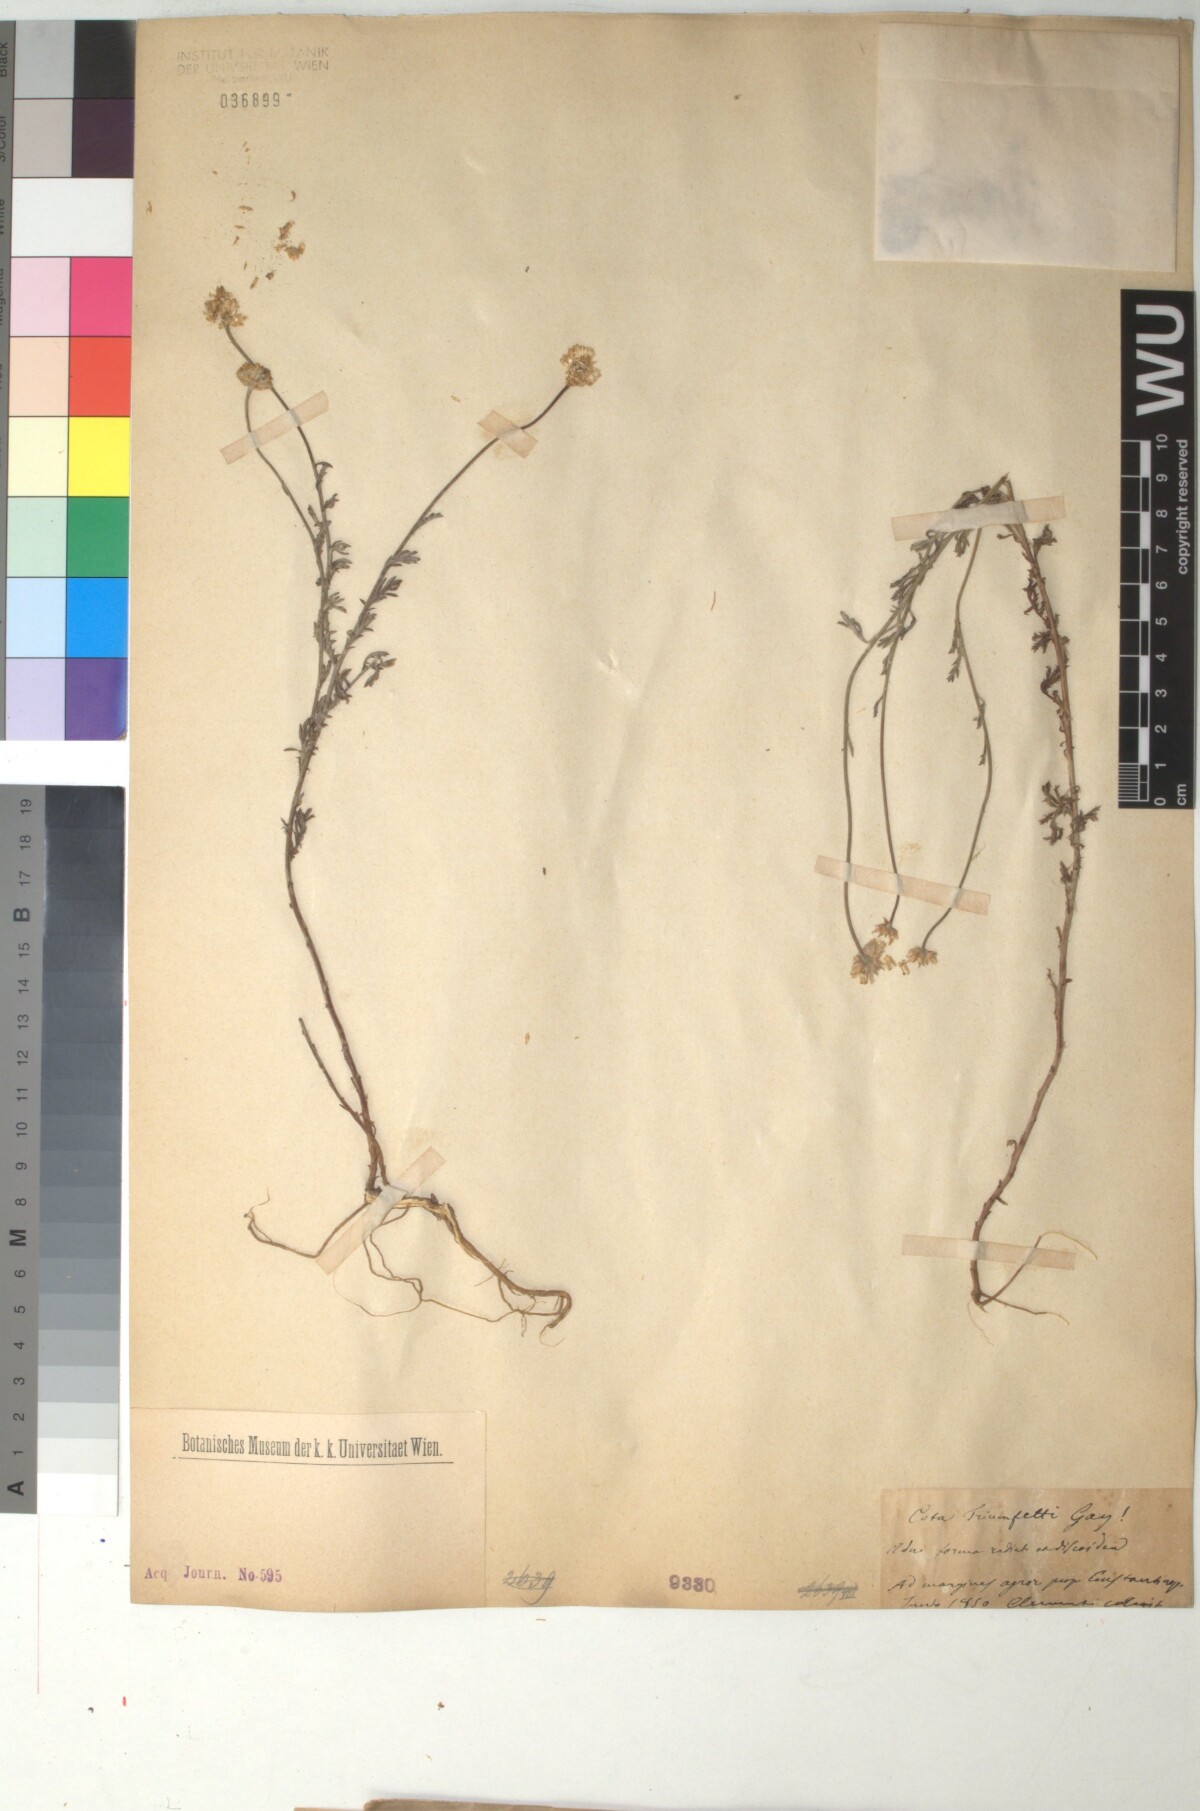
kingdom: Plantae
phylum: Tracheophyta
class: Magnoliopsida
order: Asterales
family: Asteraceae
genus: Cota
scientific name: Cota triumfetti
